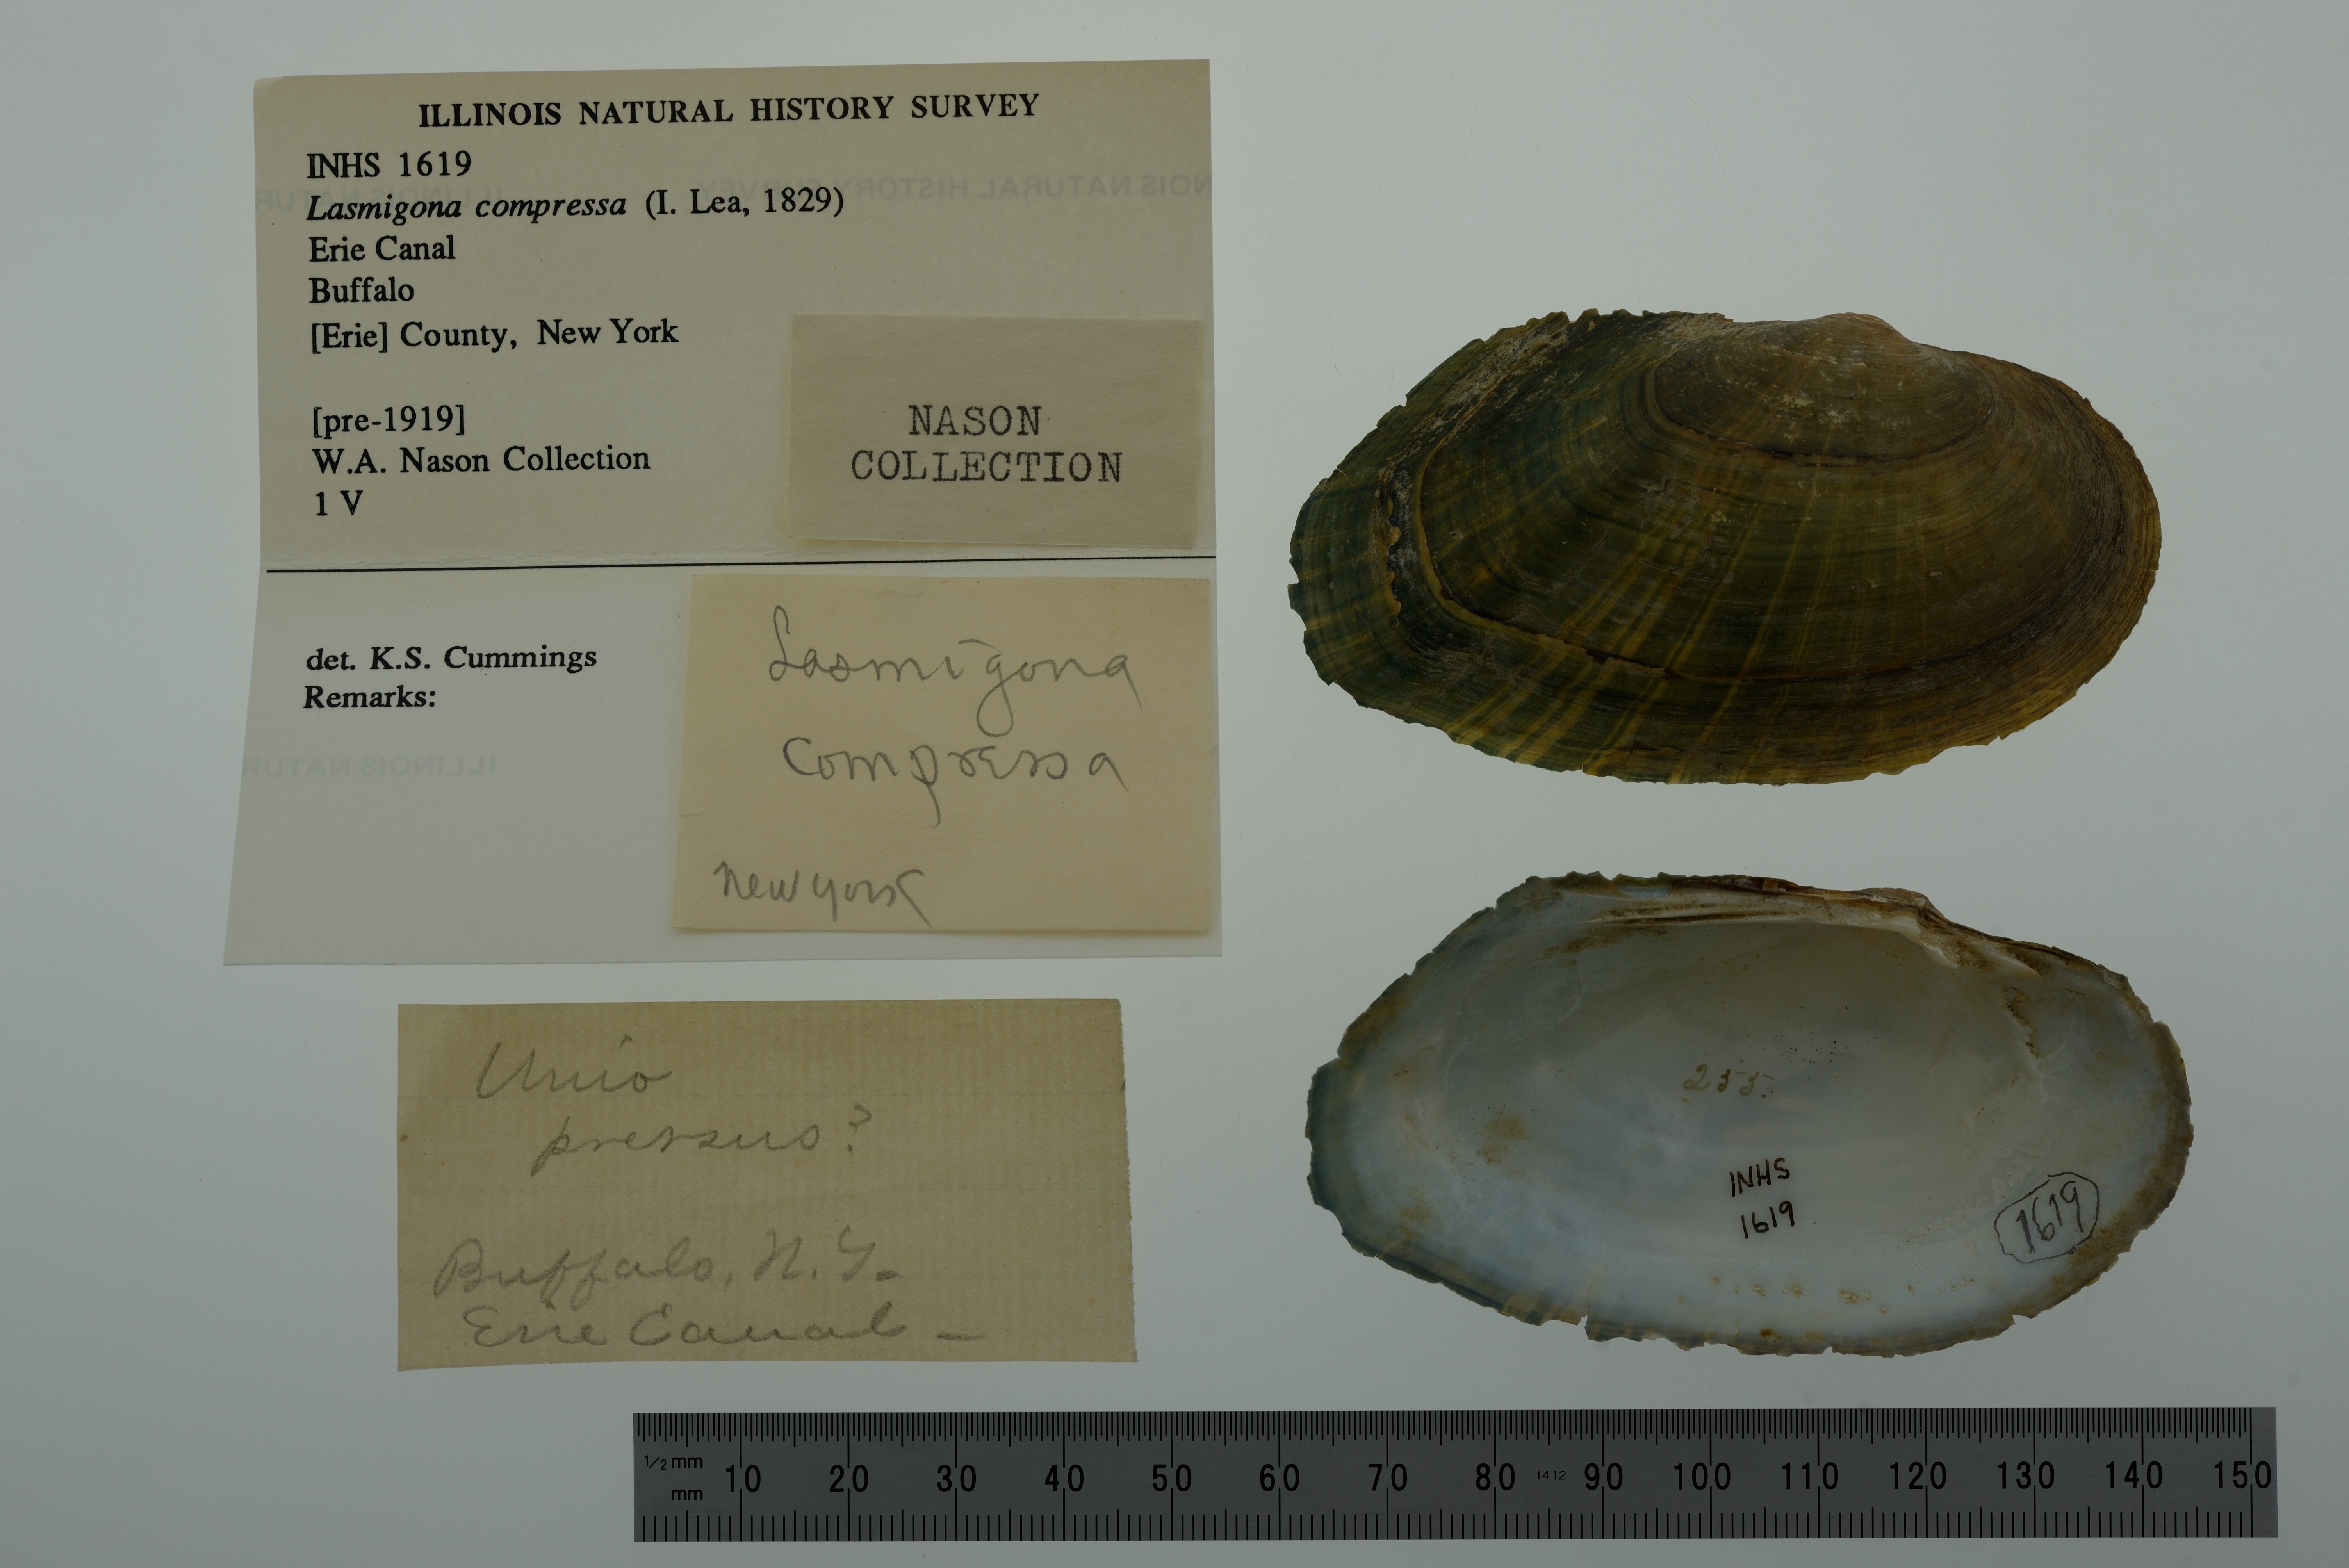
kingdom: Animalia
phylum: Mollusca
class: Bivalvia
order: Unionida
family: Unionidae
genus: Lasmigona
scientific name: Lasmigona compressa
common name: Creek heelsplitter
